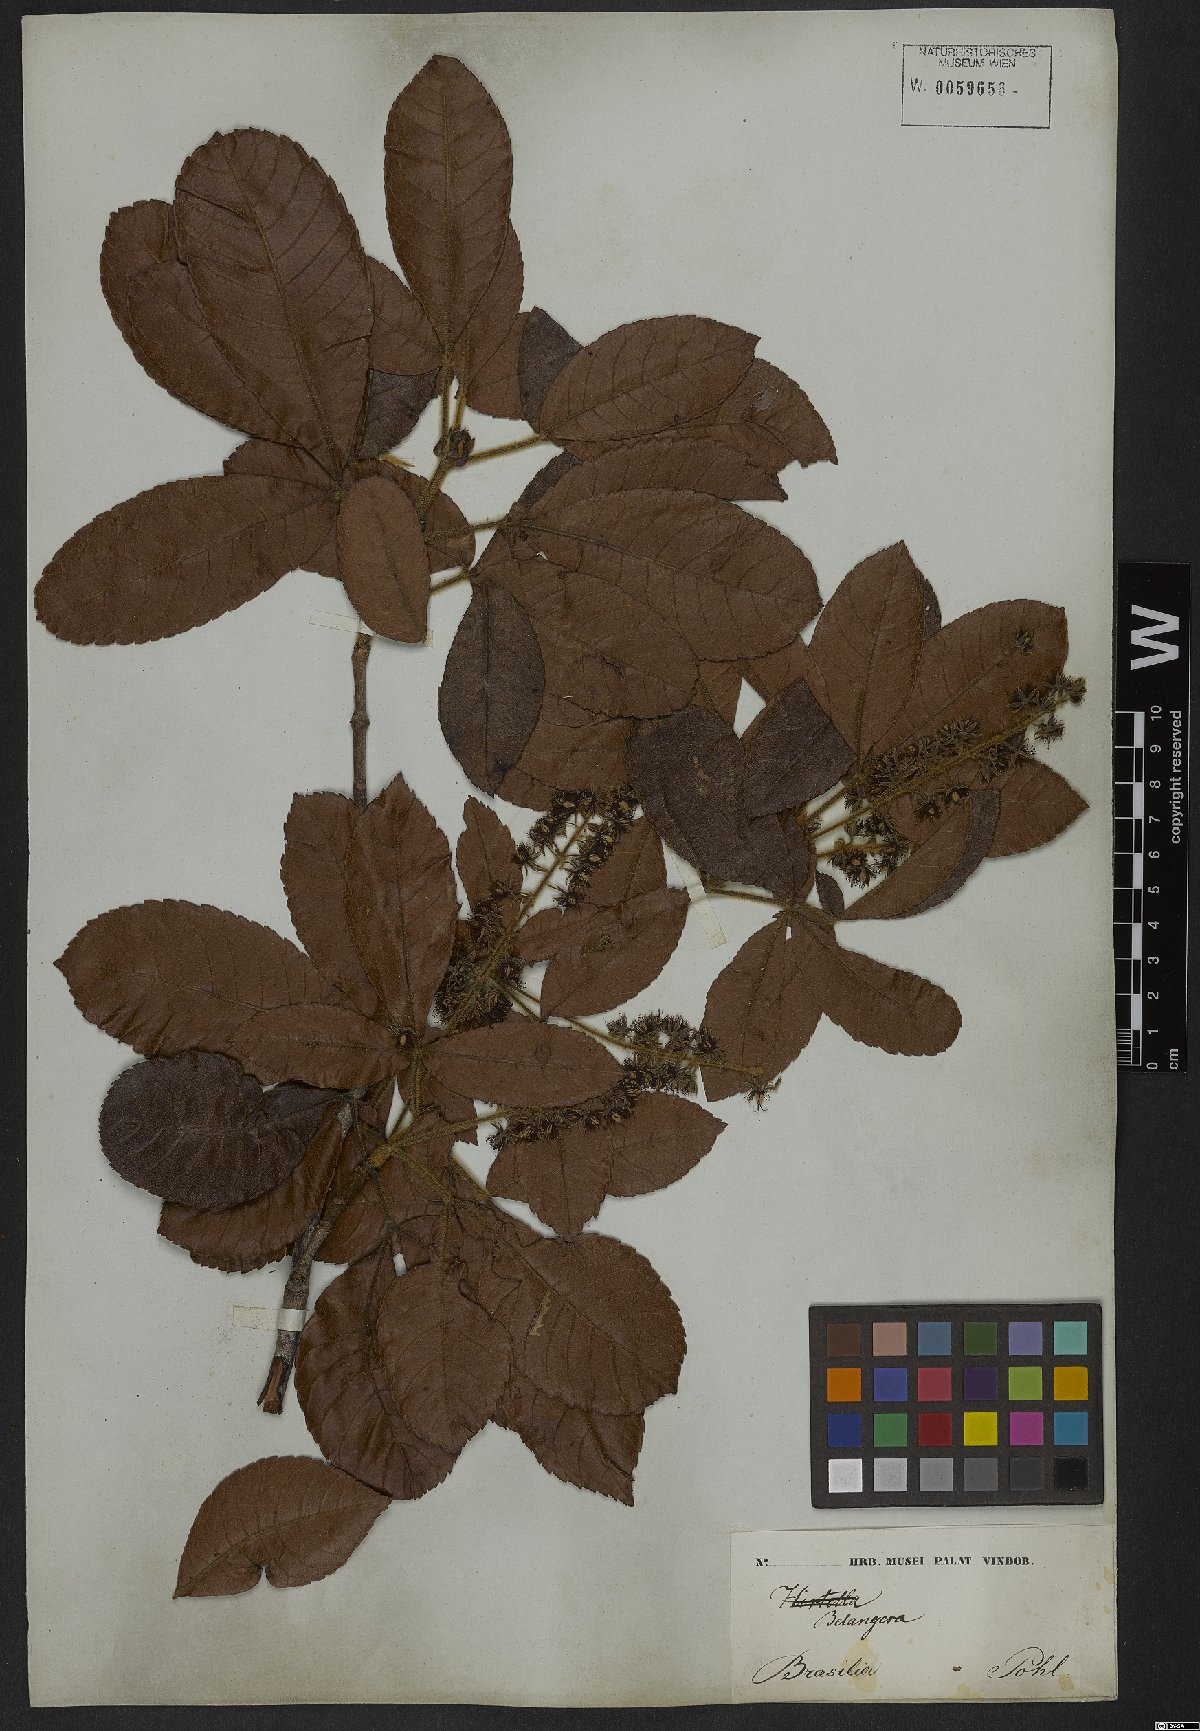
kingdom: Plantae
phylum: Tracheophyta
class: Magnoliopsida
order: Oxalidales
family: Cunoniaceae
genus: Lamanonia
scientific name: Lamanonia ternata
